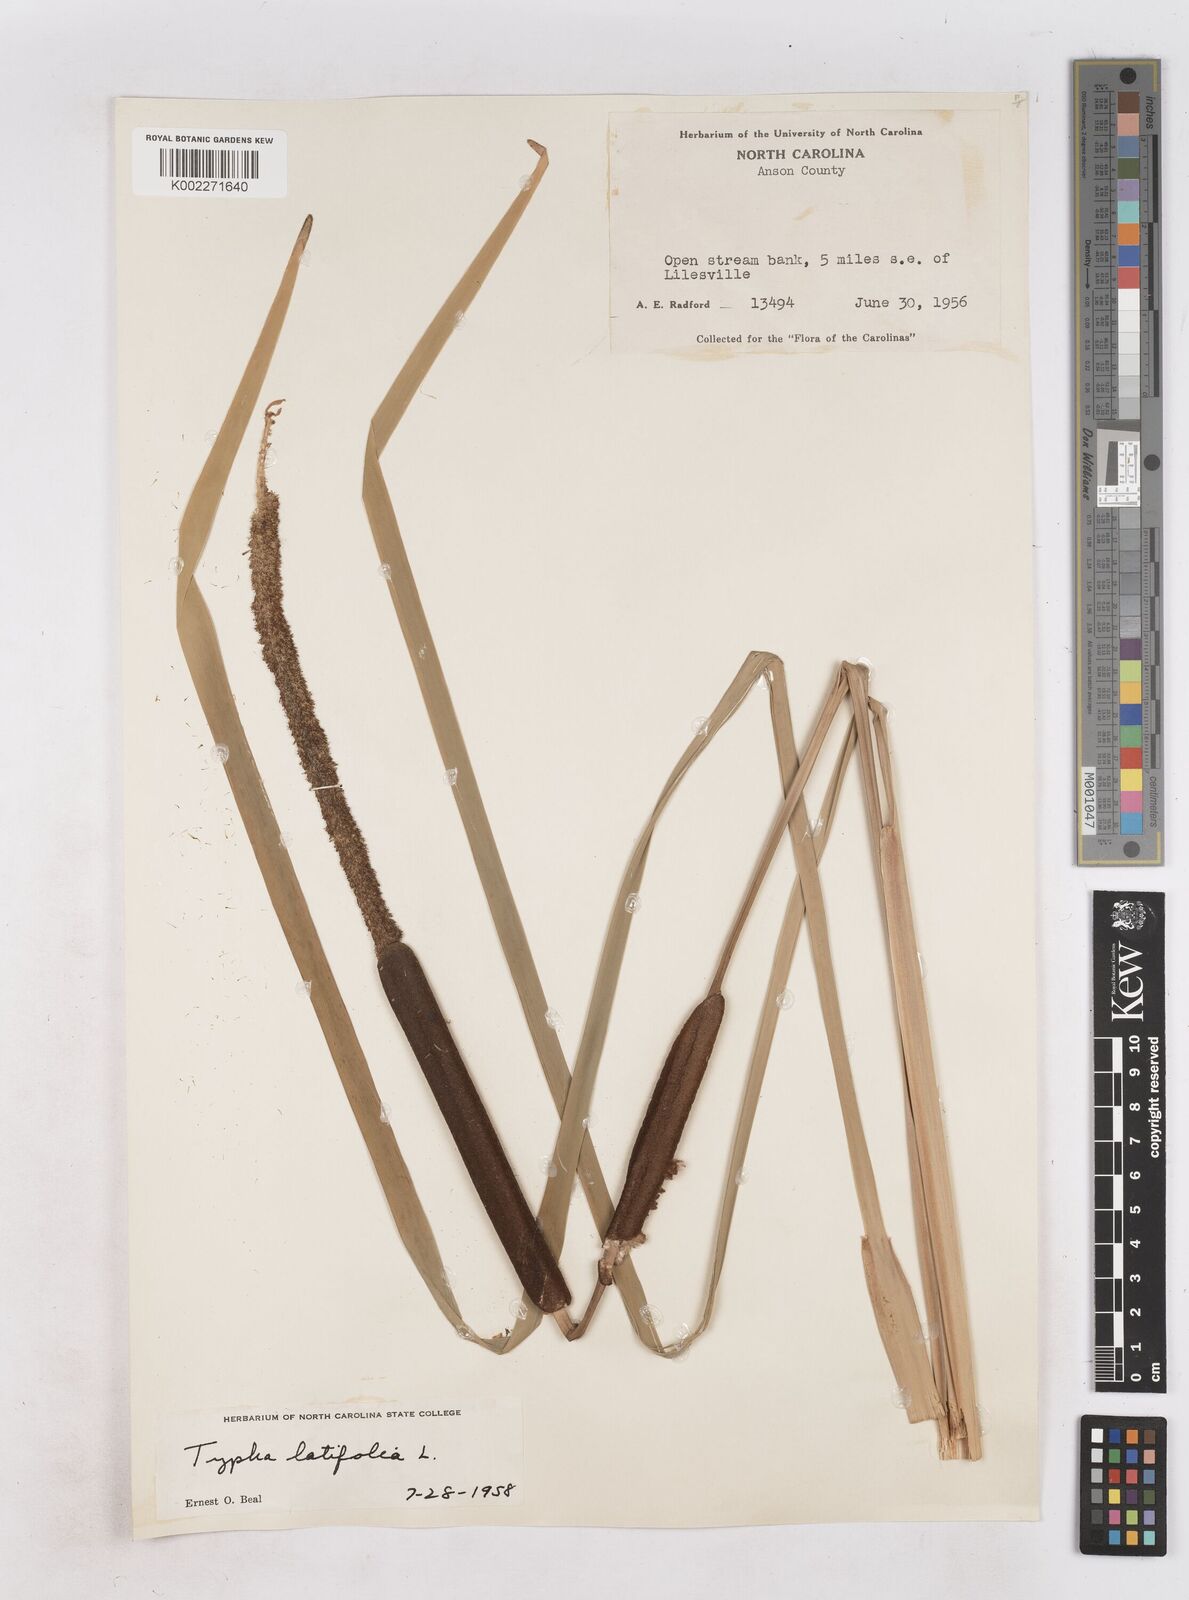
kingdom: Plantae
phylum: Tracheophyta
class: Liliopsida
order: Poales
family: Typhaceae
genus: Typha
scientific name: Typha latifolia
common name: Broadleaf cattail
